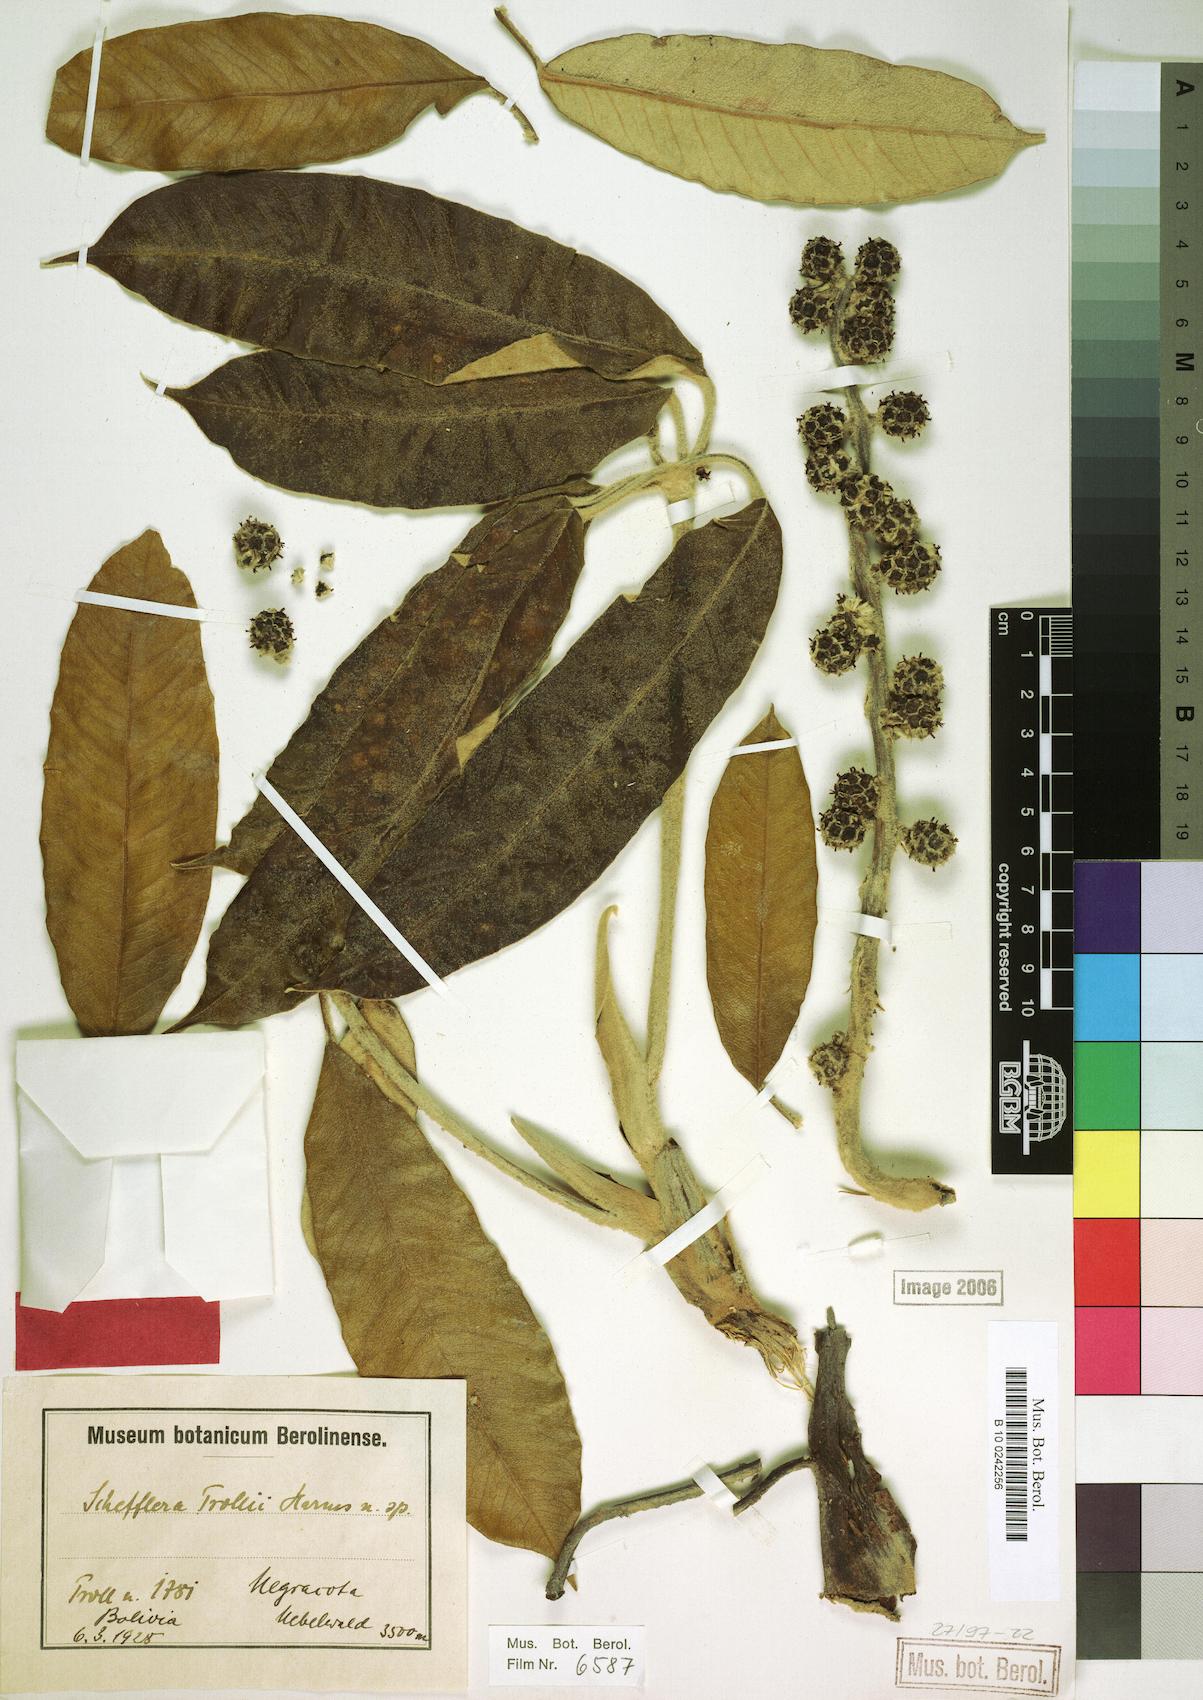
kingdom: Plantae
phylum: Tracheophyta
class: Magnoliopsida
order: Apiales
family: Araliaceae
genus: Sciodaphyllum
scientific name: Sciodaphyllum trollii
